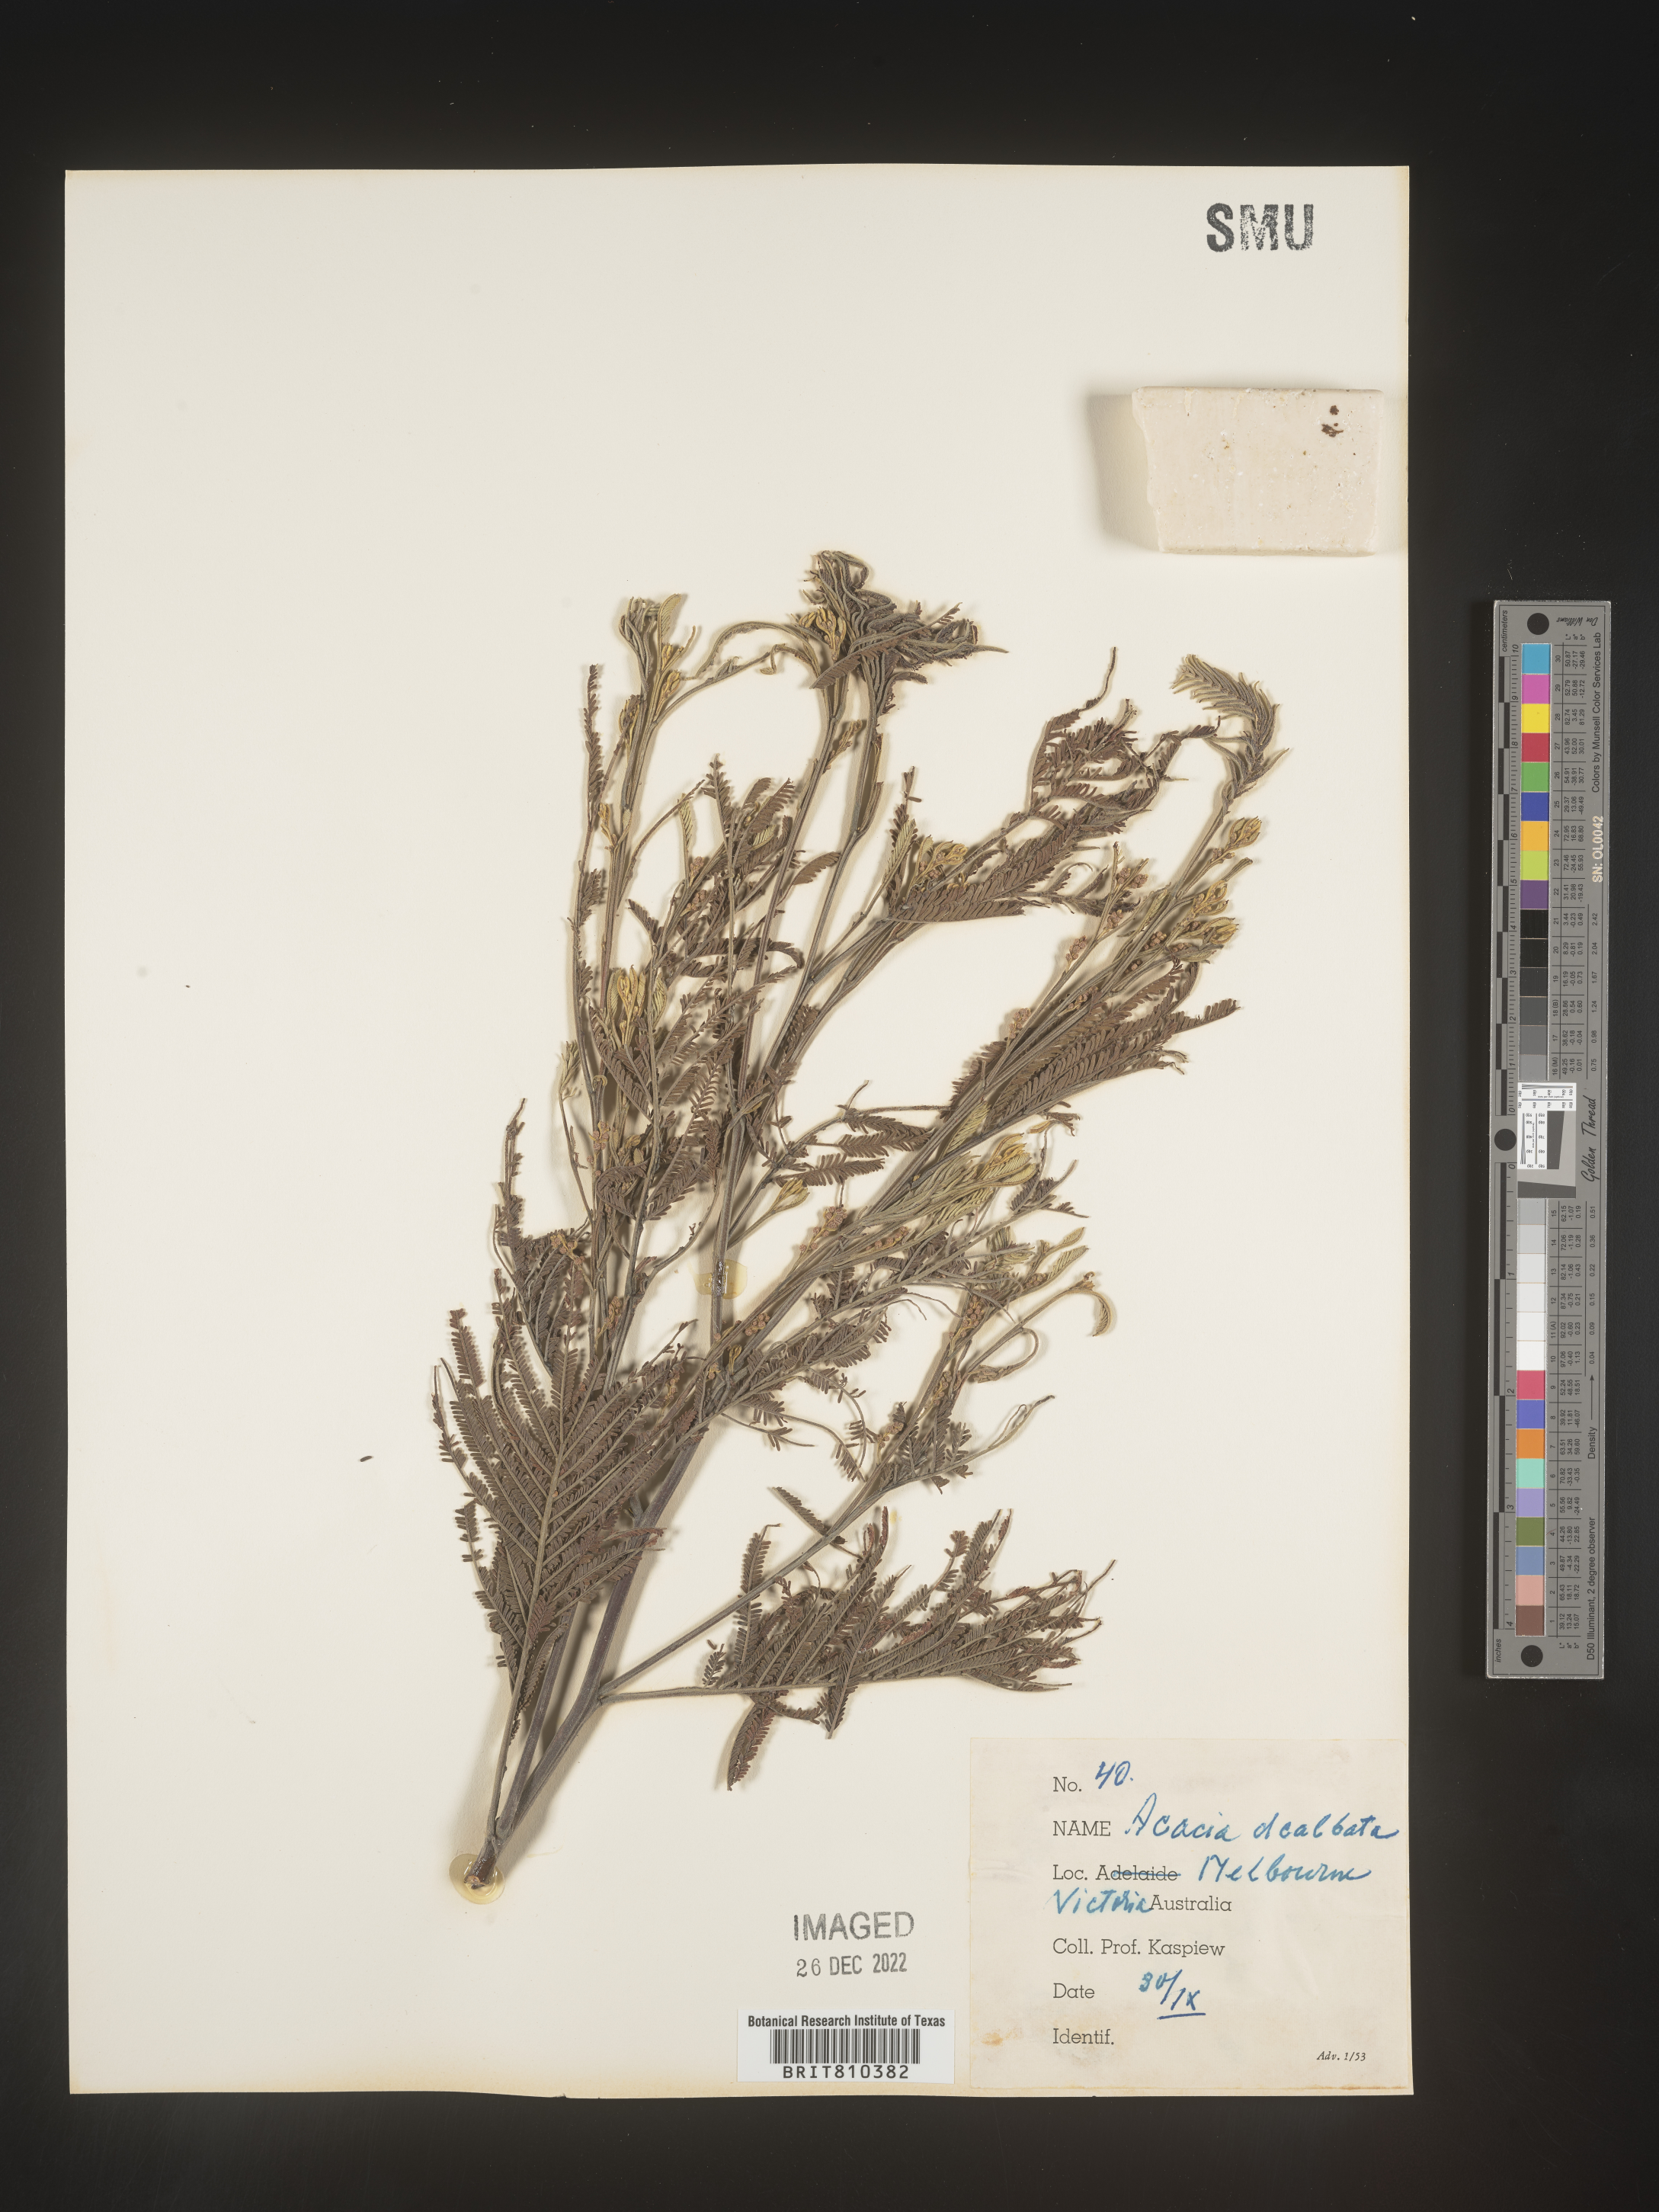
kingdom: Plantae
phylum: Tracheophyta
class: Magnoliopsida
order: Fabales
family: Fabaceae
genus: Acacia
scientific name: Acacia
